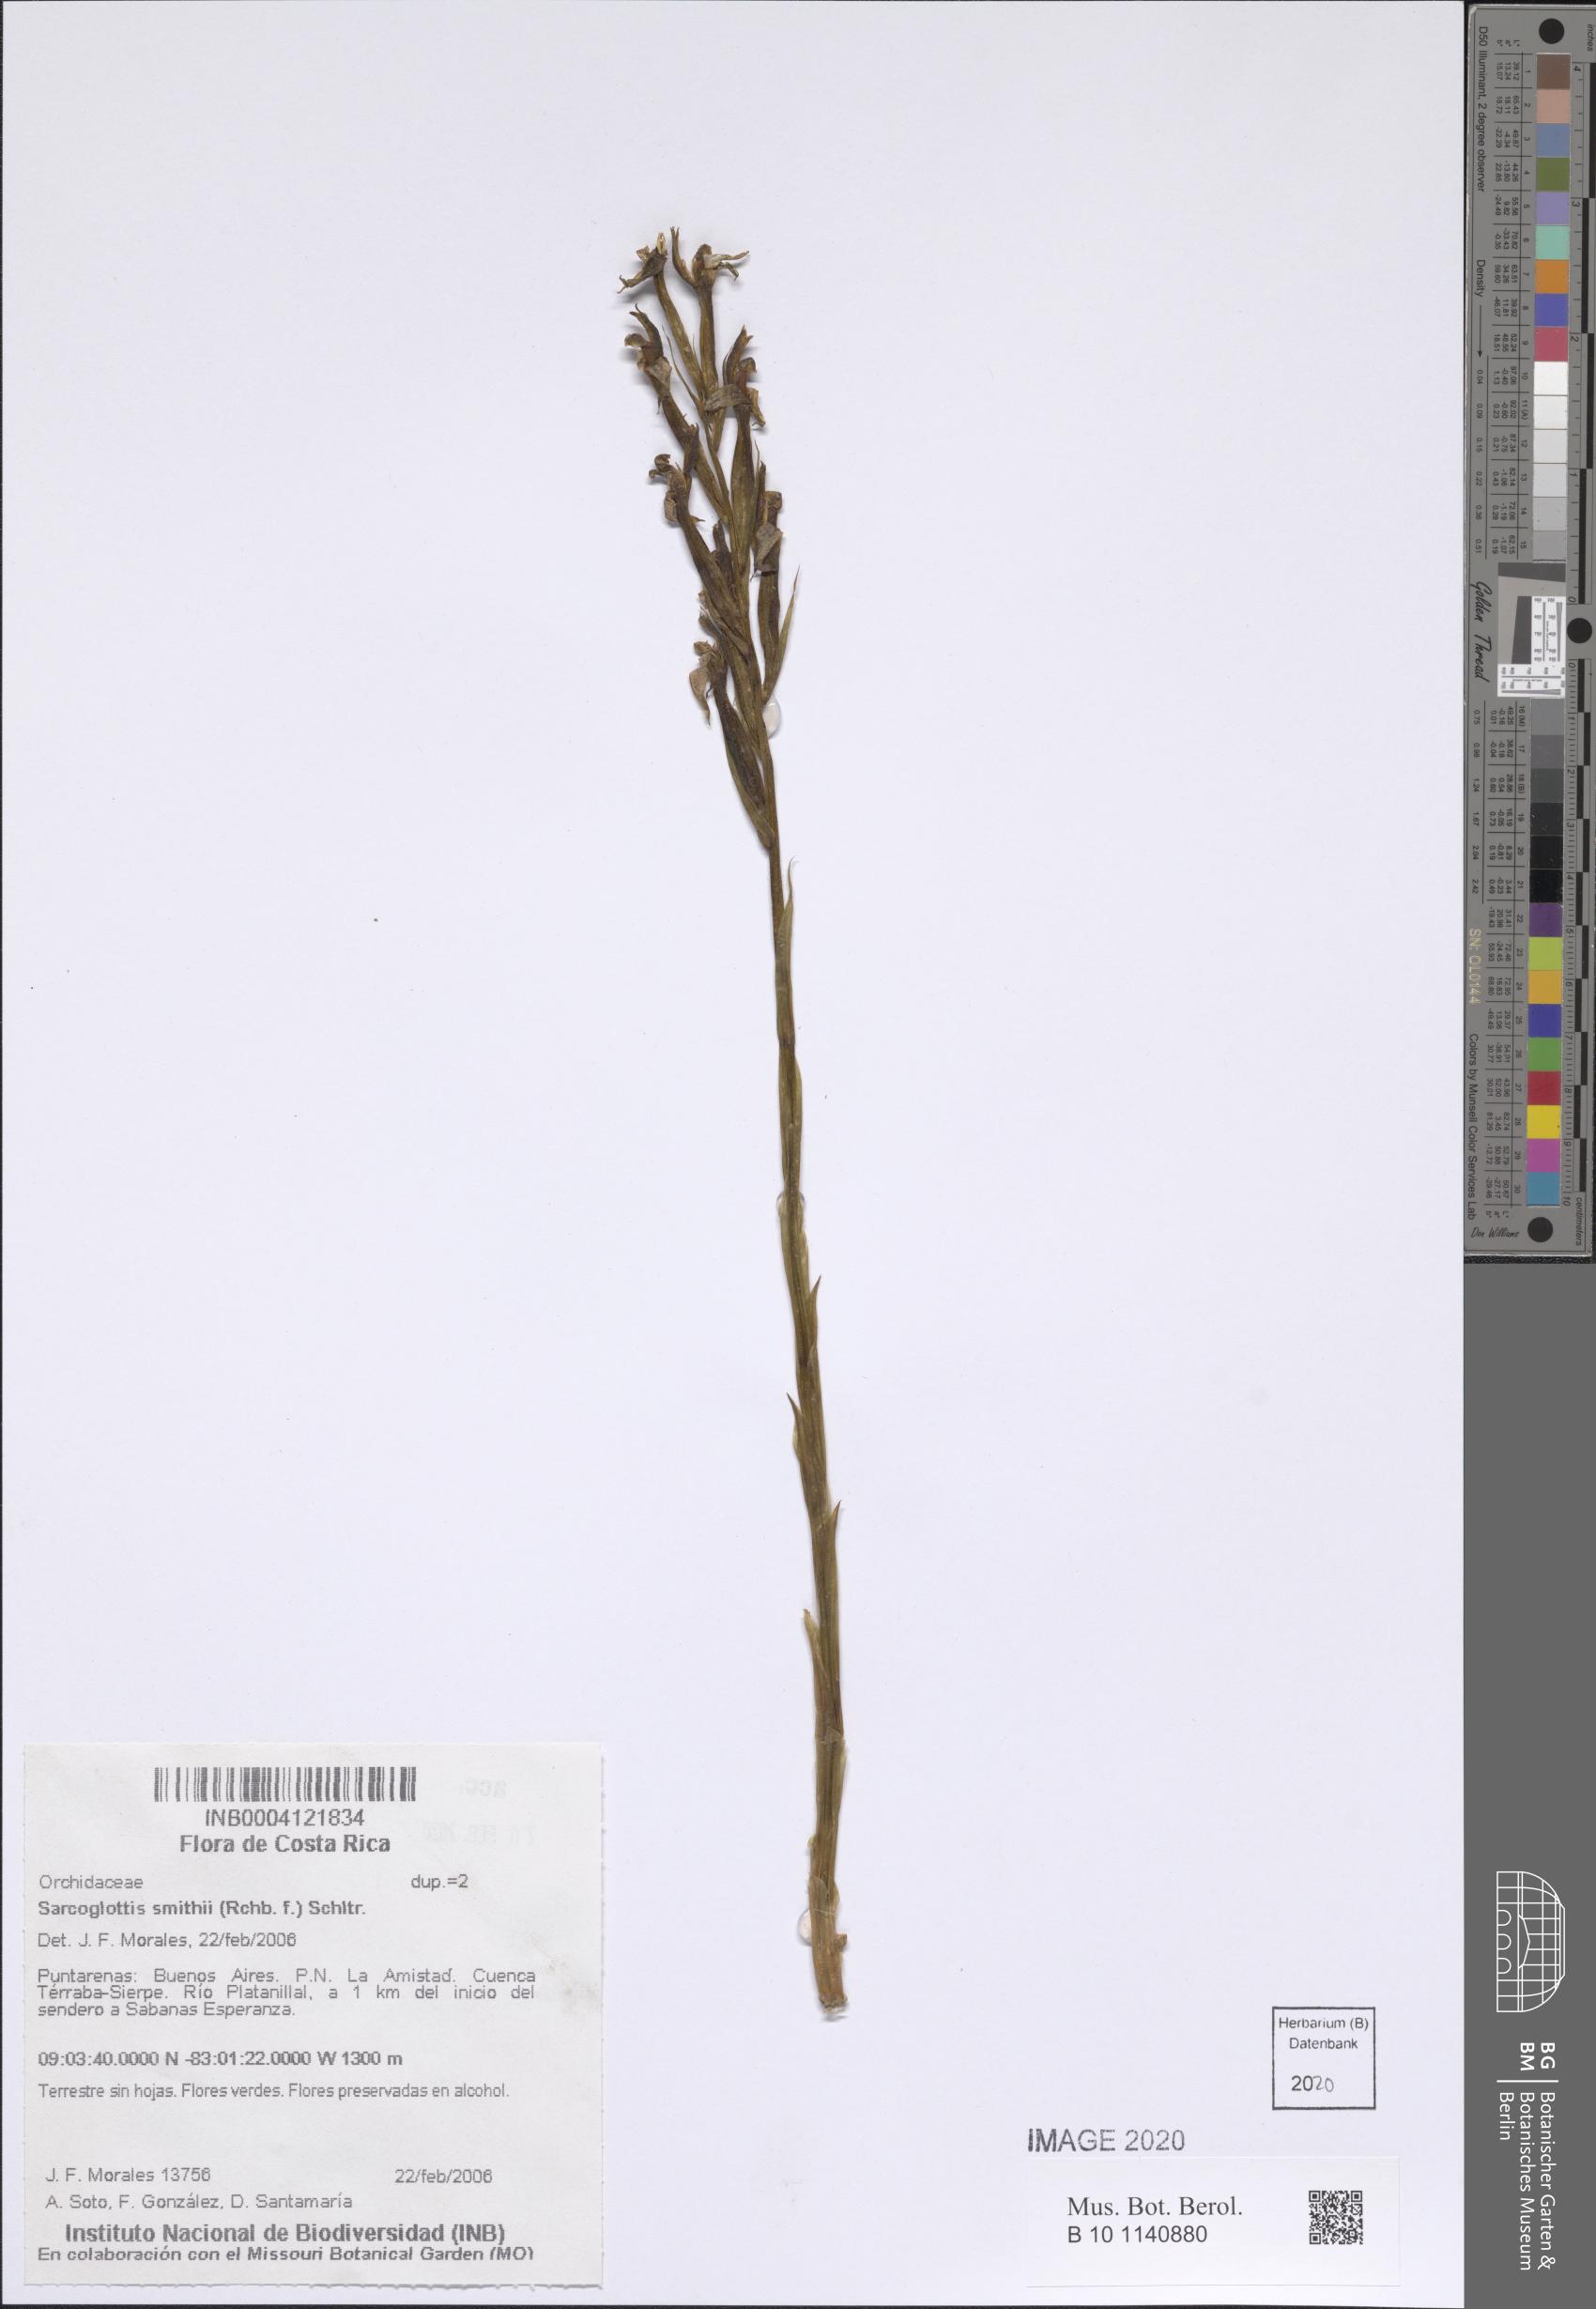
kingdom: Plantae
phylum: Tracheophyta
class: Liliopsida
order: Asparagales
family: Orchidaceae
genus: Sarcoglottis
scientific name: Sarcoglottis smithii
